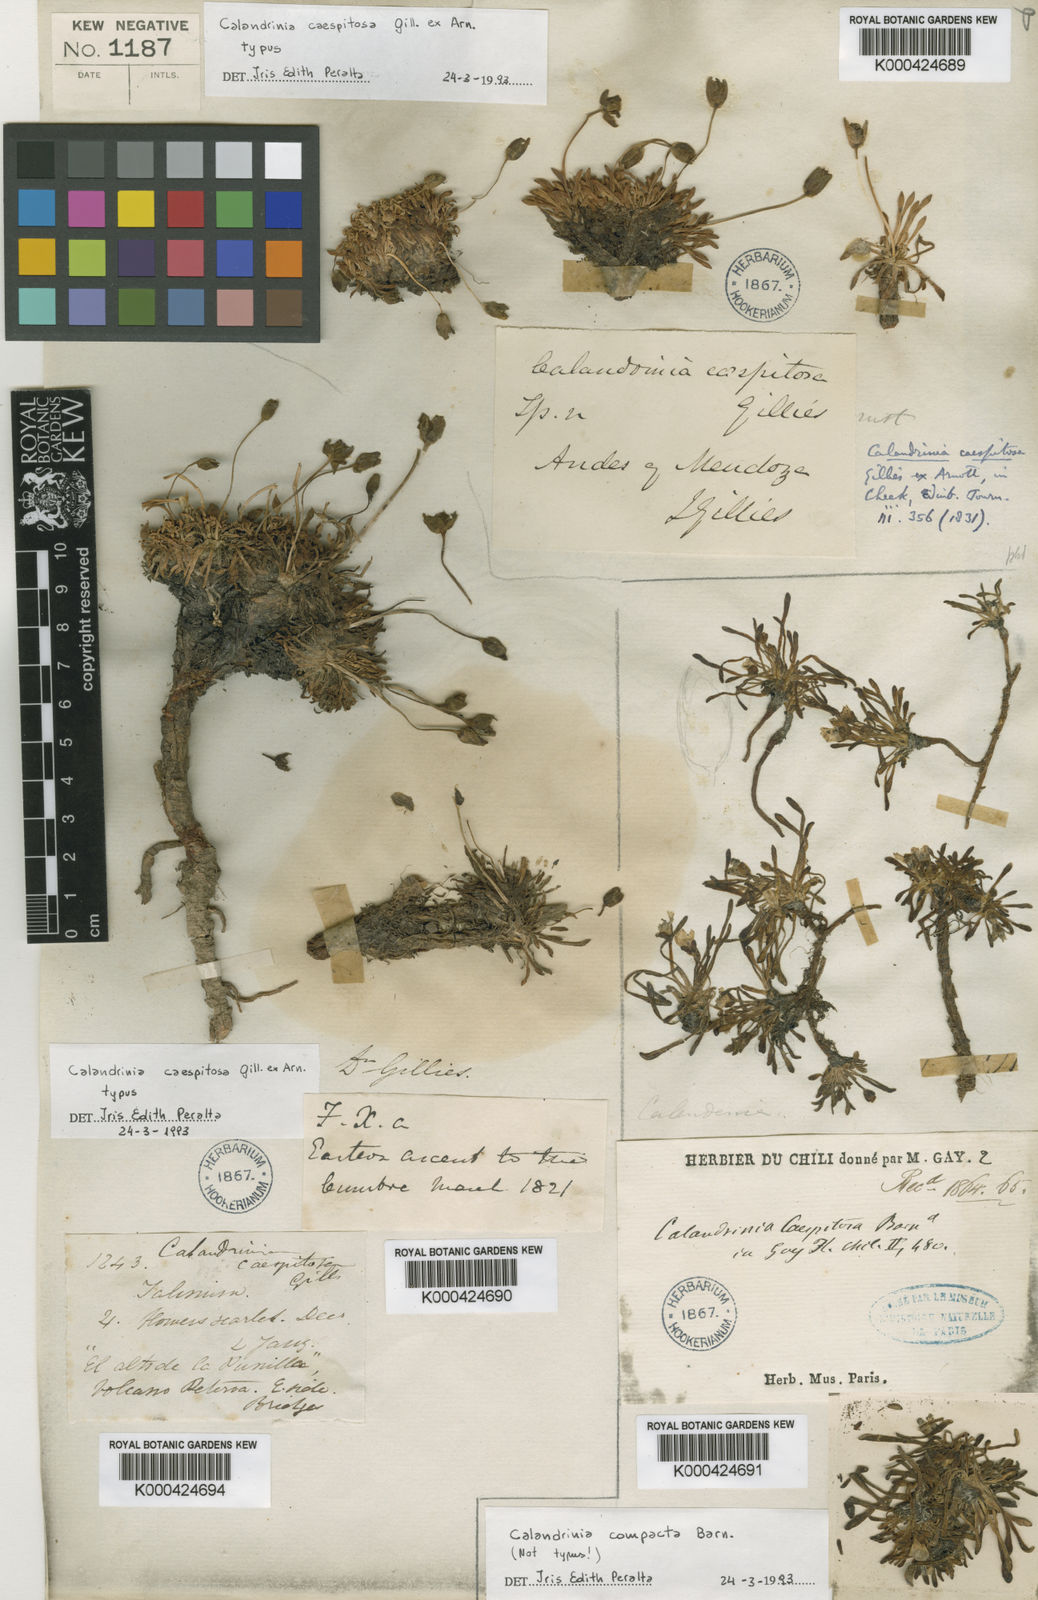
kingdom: Plantae
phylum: Tracheophyta
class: Magnoliopsida
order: Caryophyllales
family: Montiaceae
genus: Calandrinia
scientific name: Calandrinia caespitosa
